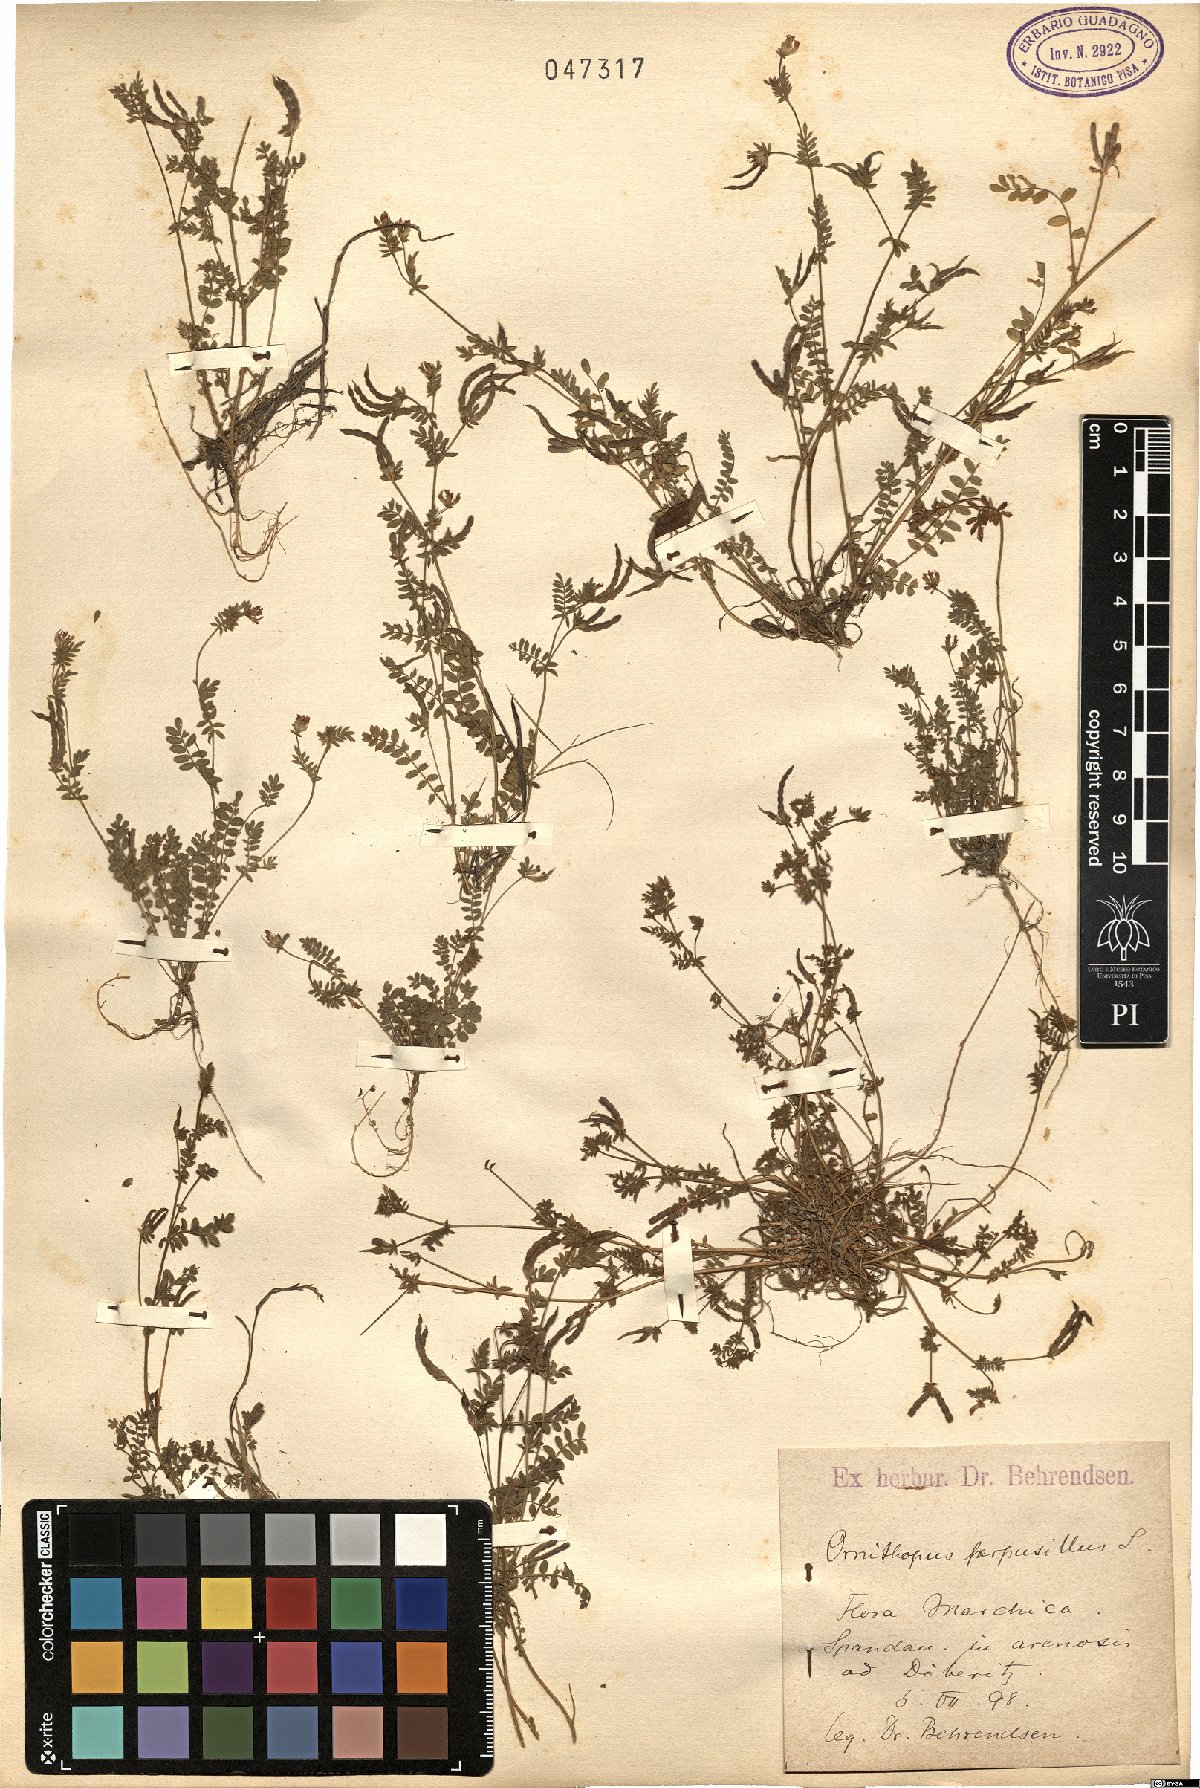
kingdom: Plantae
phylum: Tracheophyta
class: Magnoliopsida
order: Fabales
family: Fabaceae
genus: Ornithopus
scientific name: Ornithopus perpusillus
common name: Bird's-foot
